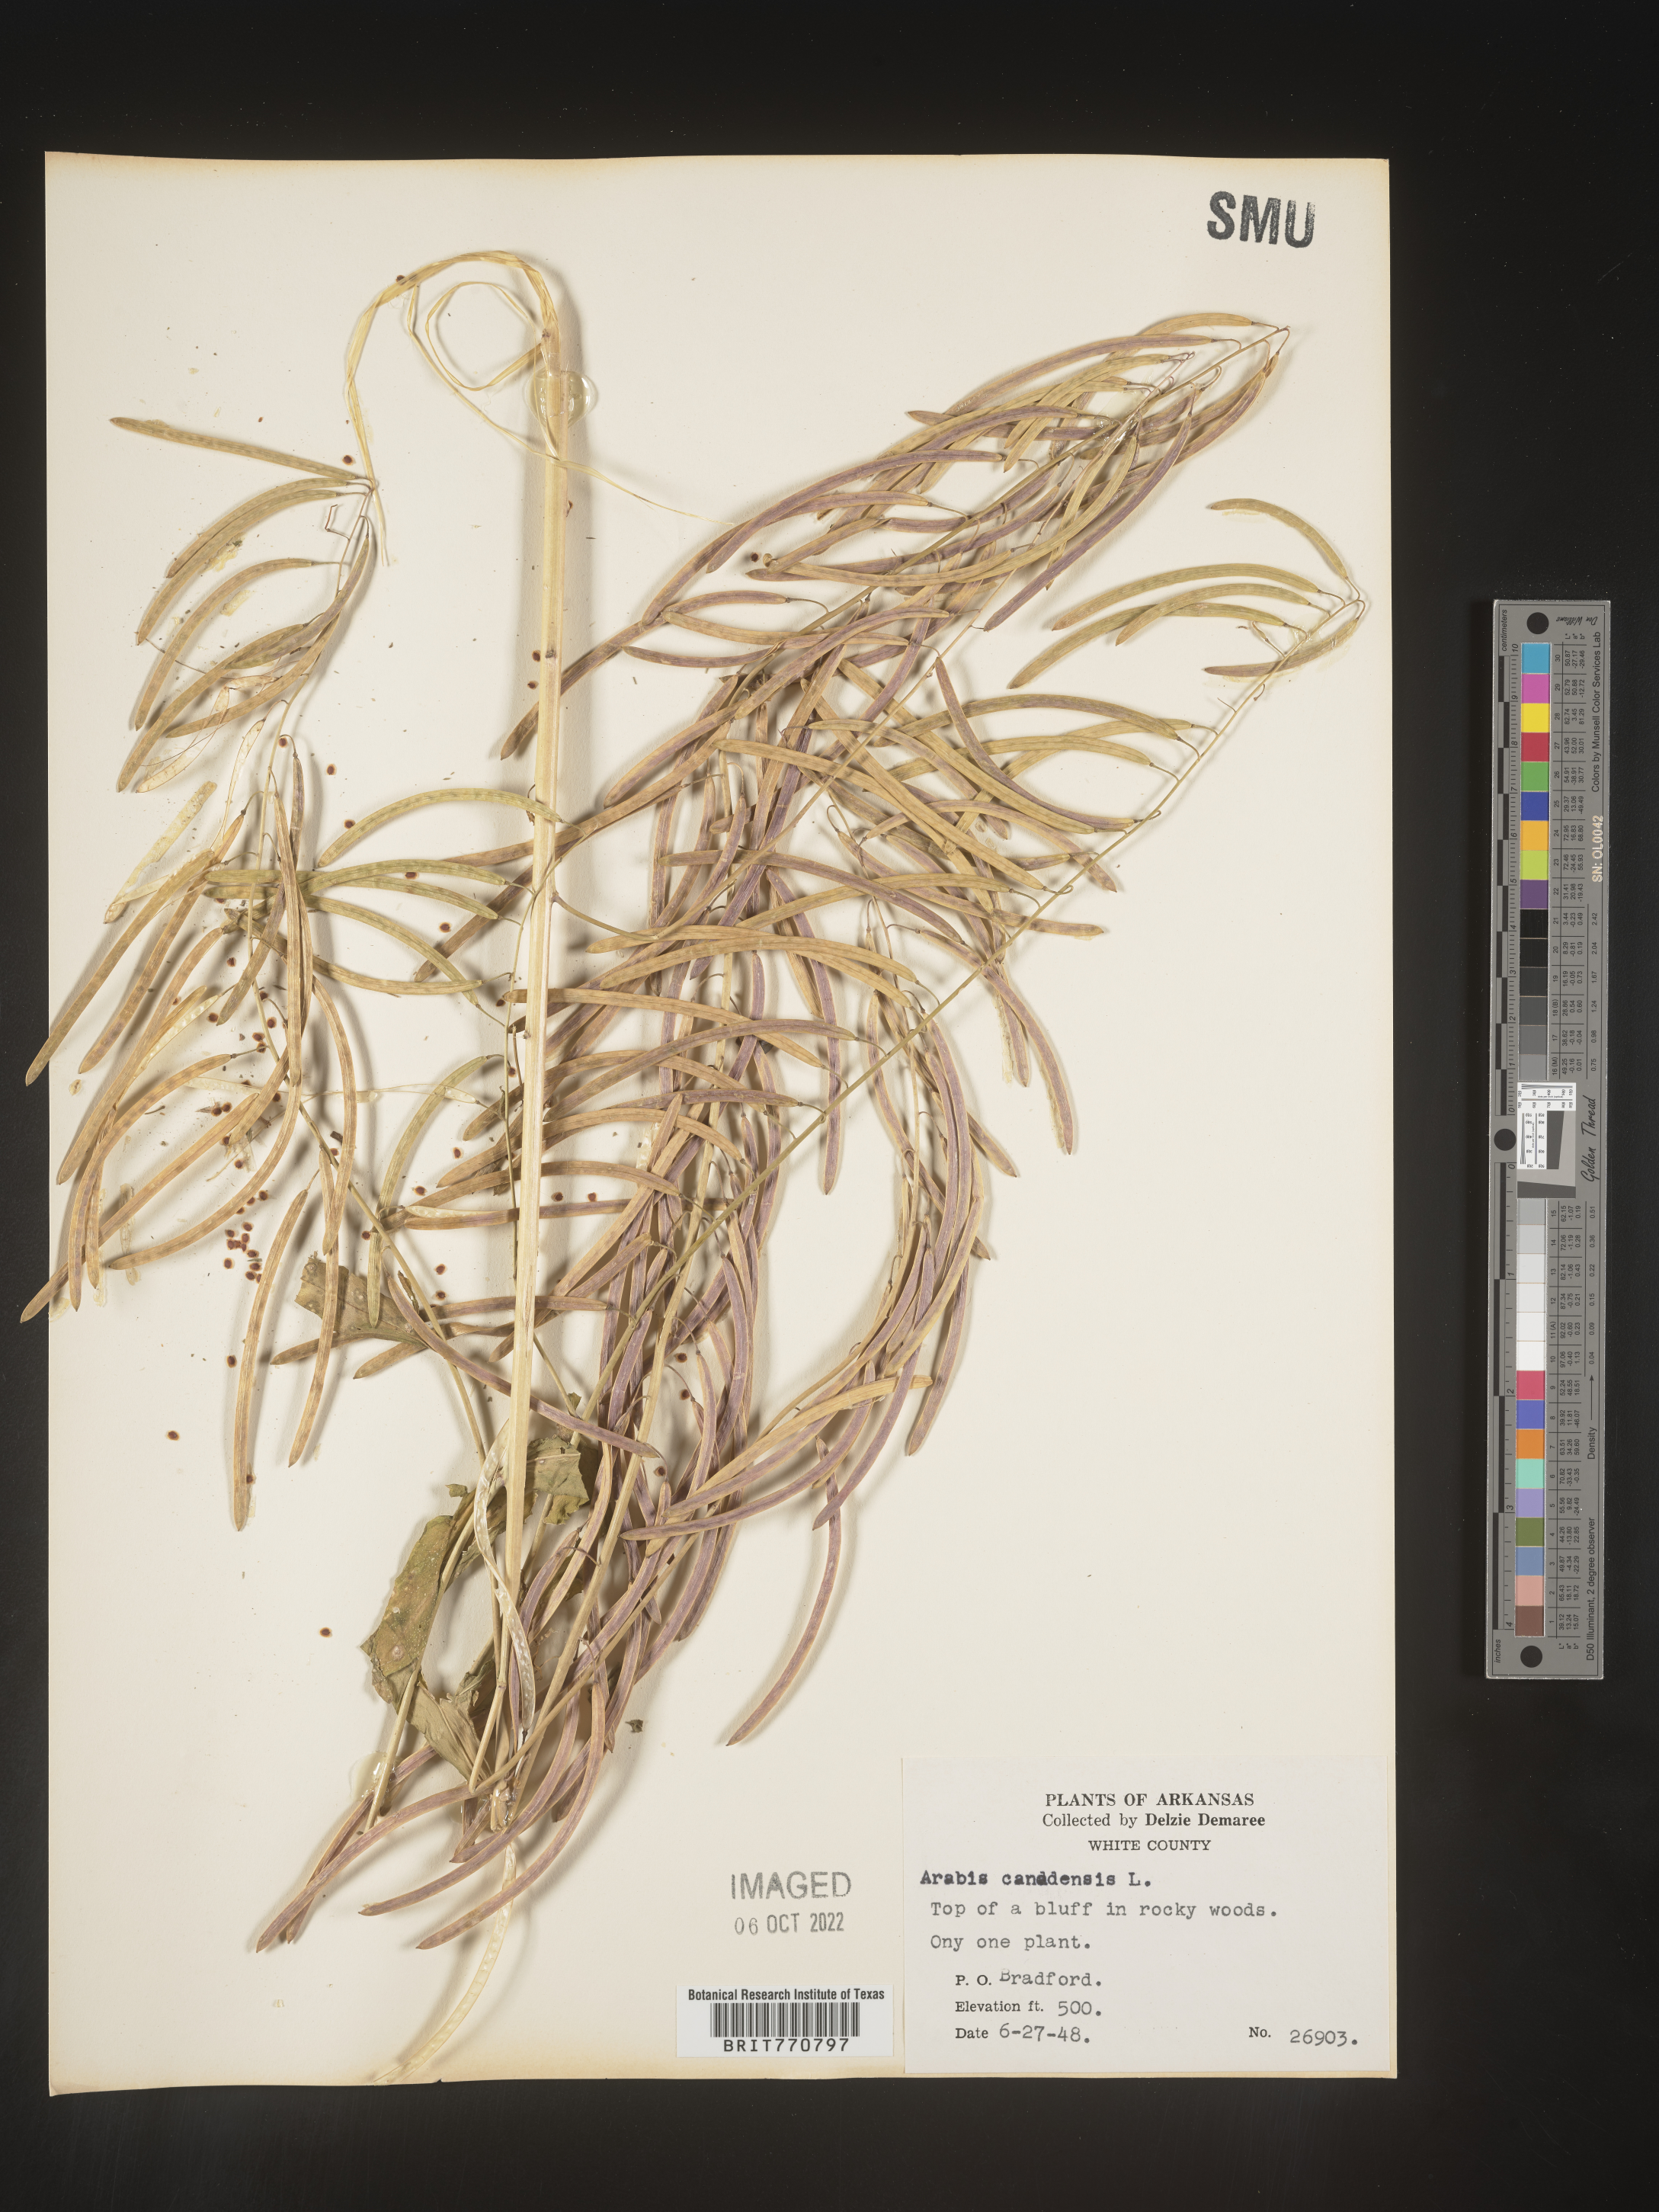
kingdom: Plantae
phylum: Tracheophyta
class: Magnoliopsida
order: Brassicales
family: Brassicaceae
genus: Borodinia
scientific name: Borodinia canadensis
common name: Sicklepod
